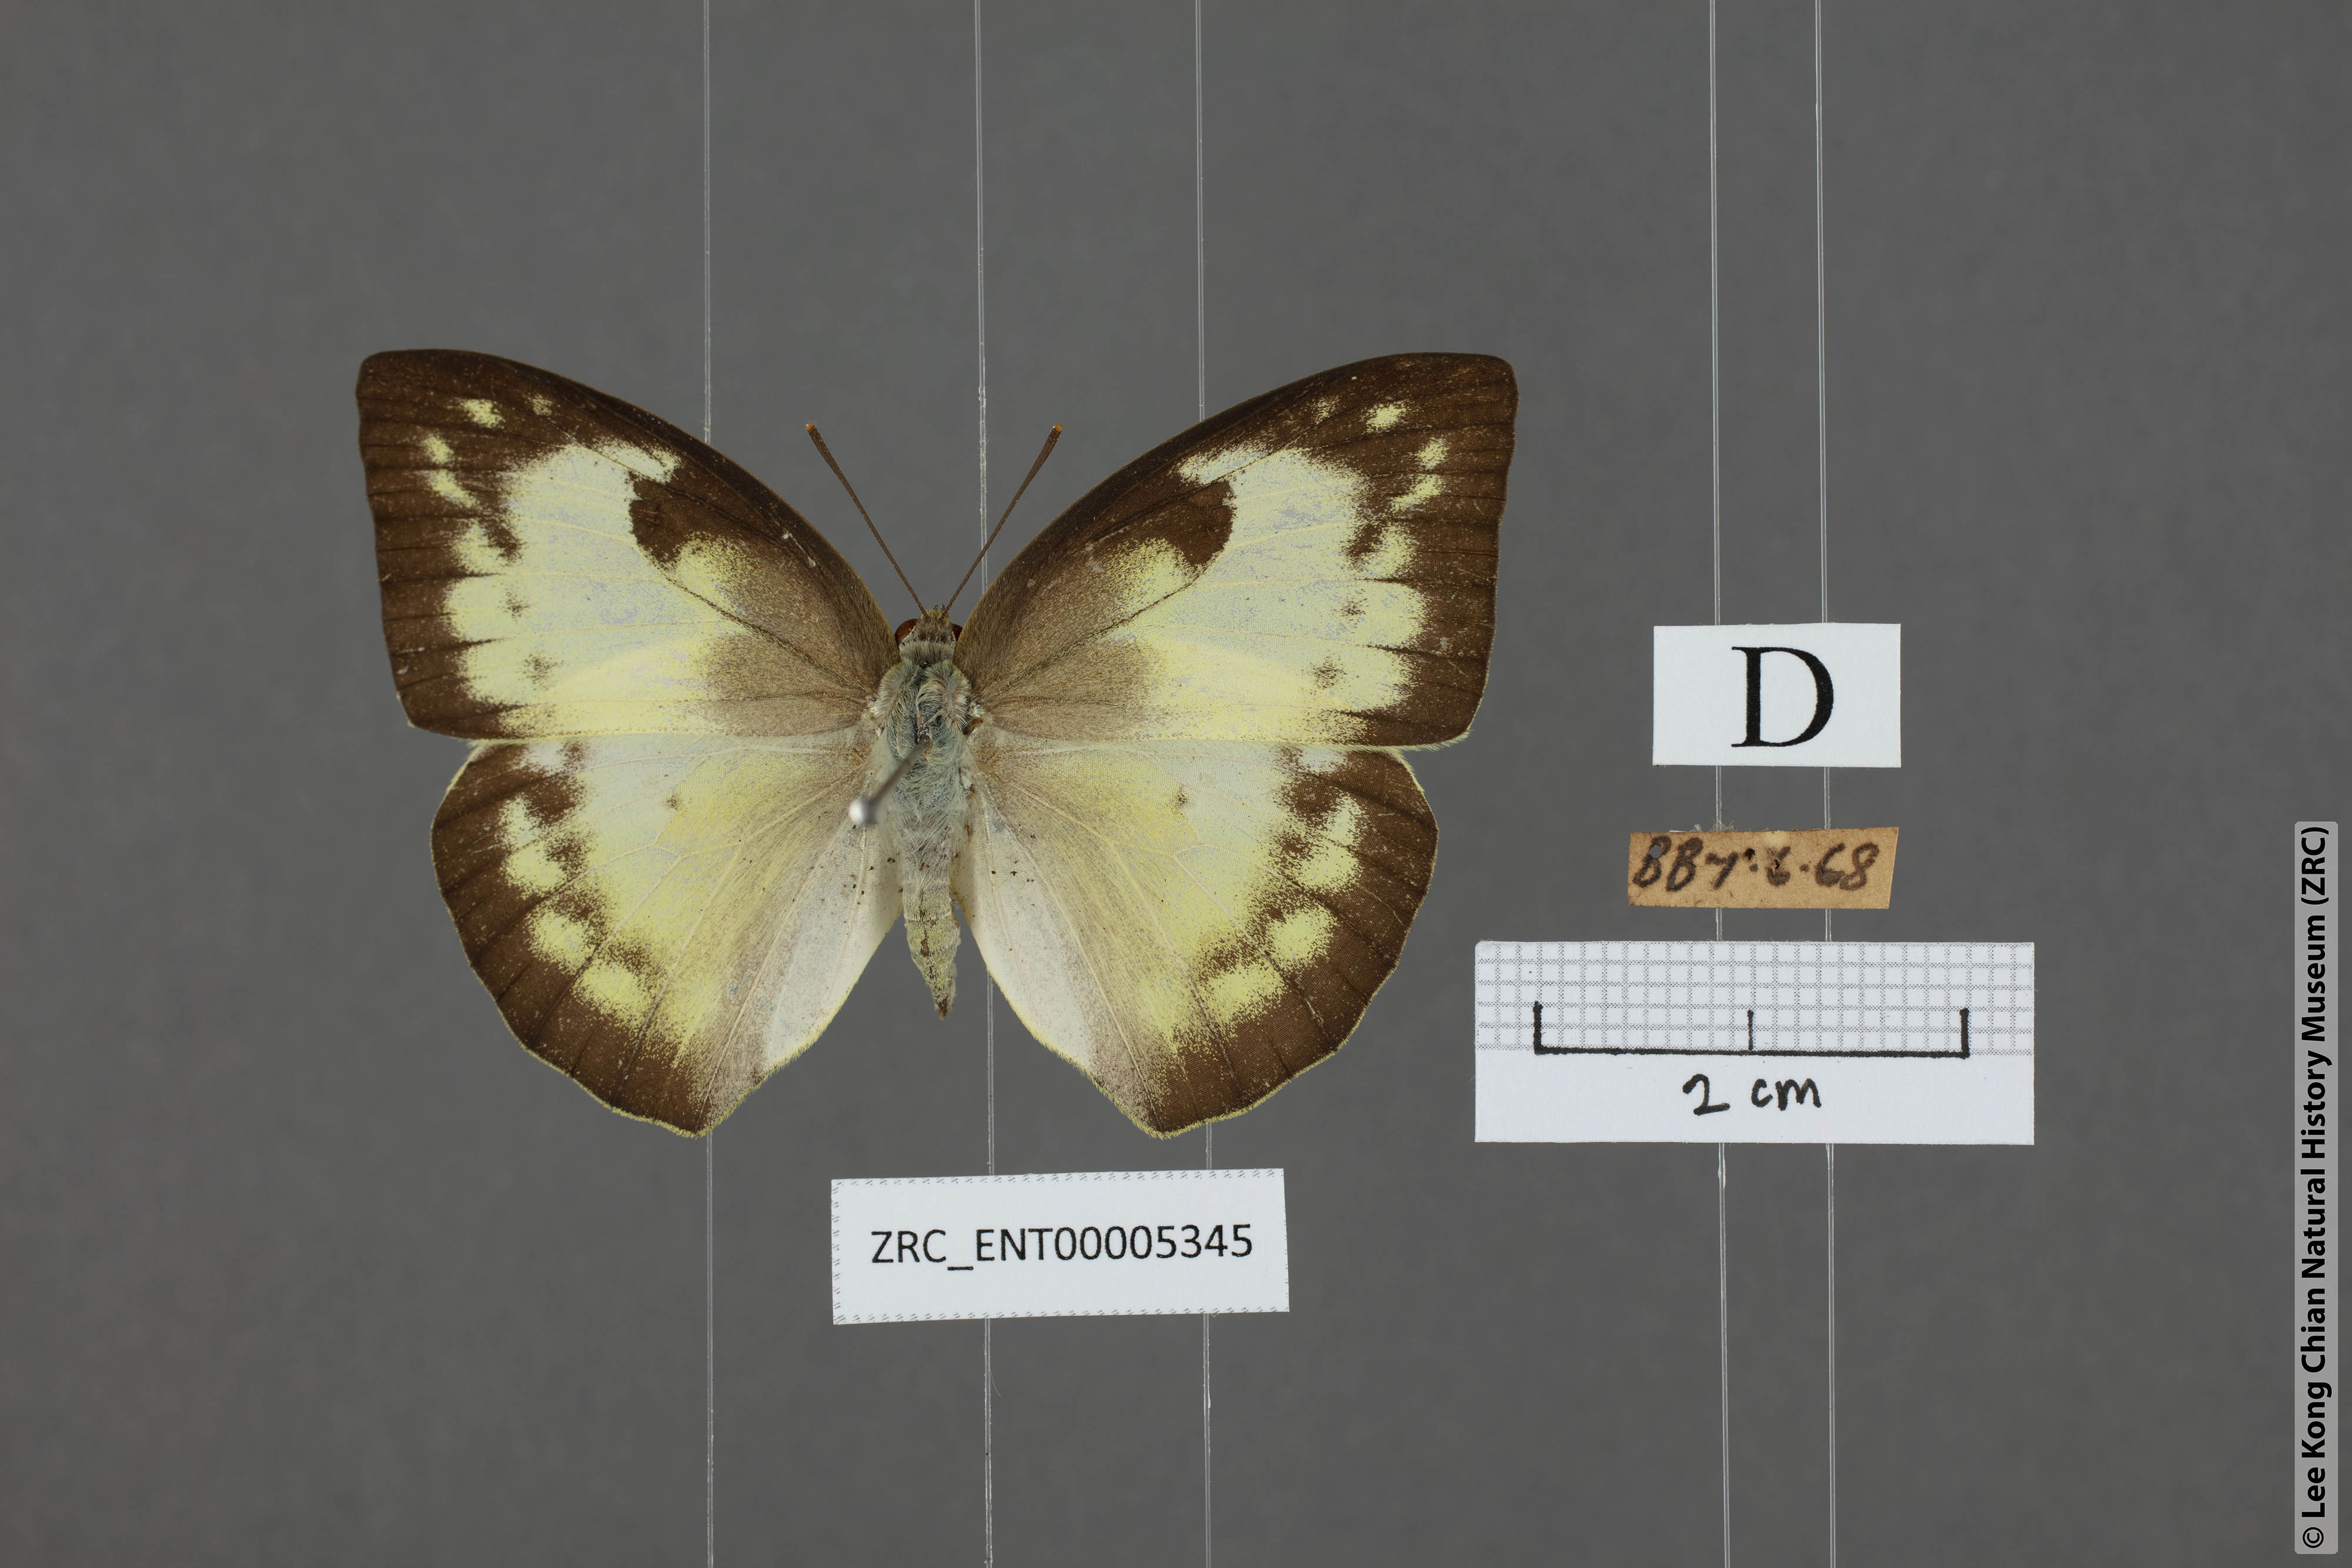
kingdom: Animalia
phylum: Arthropoda
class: Insecta
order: Lepidoptera
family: Pieridae
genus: Catopsilia
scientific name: Catopsilia pomona
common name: Common emigrant
